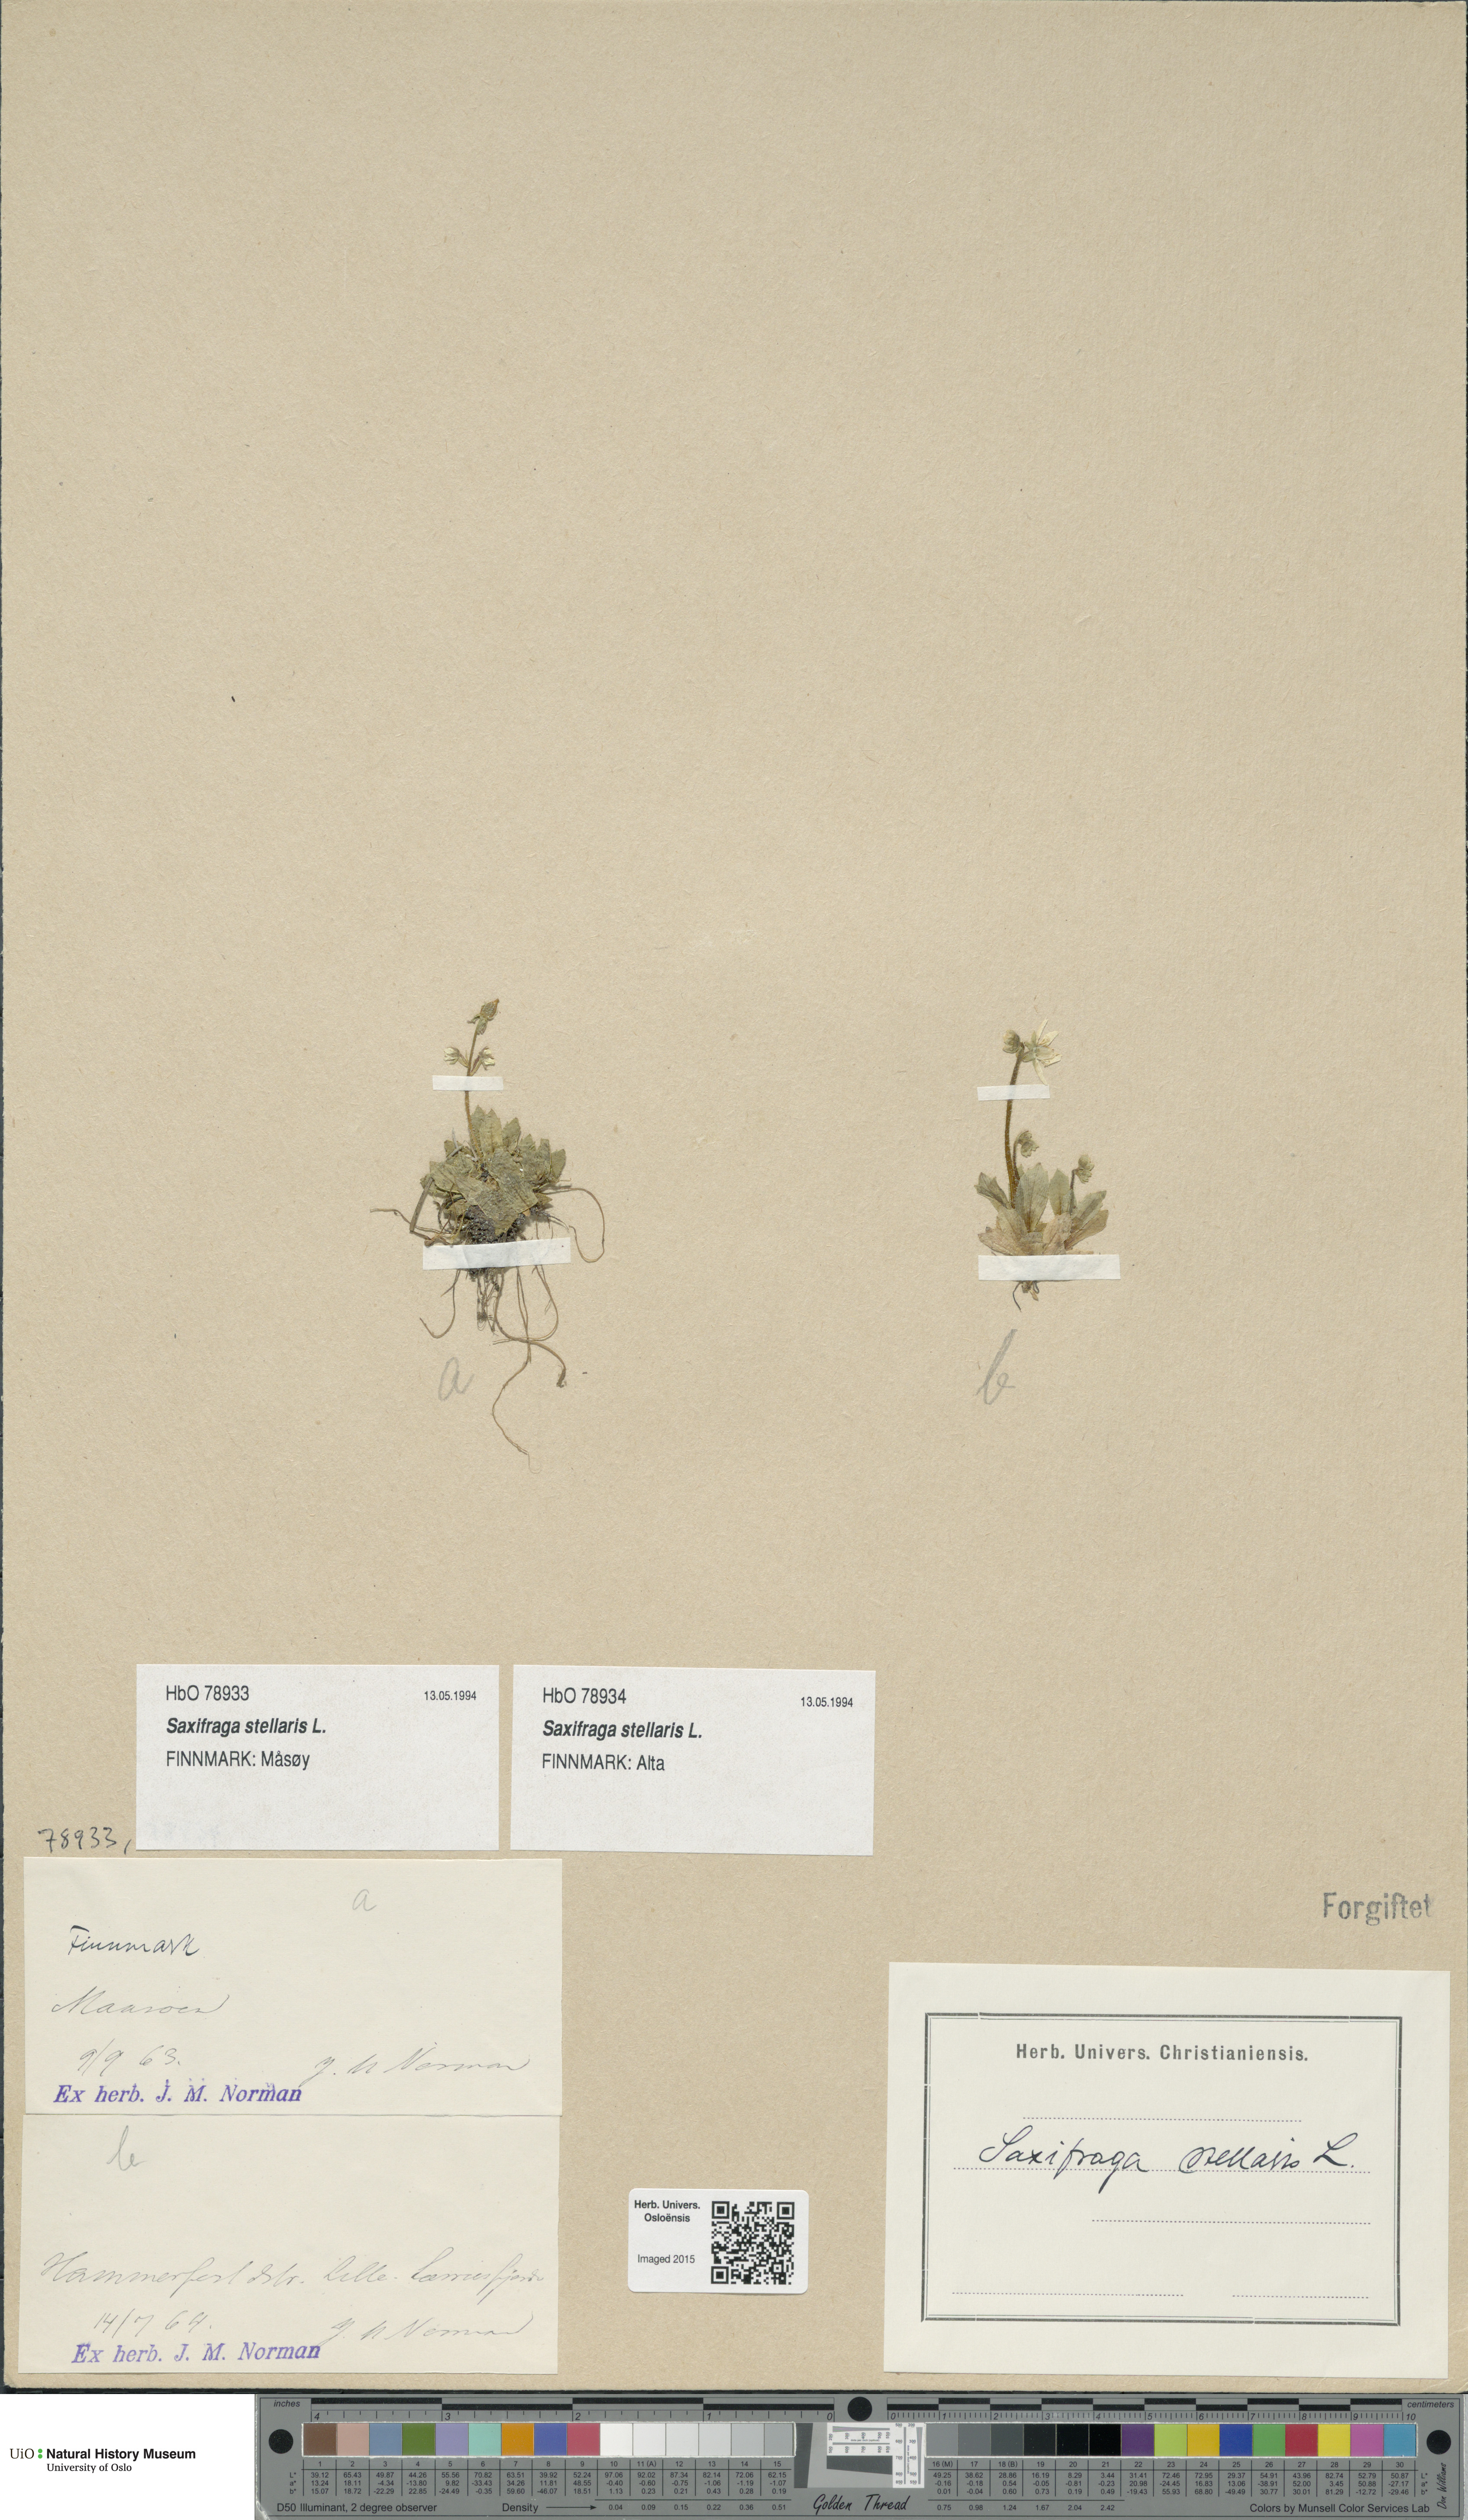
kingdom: Plantae
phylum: Tracheophyta
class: Magnoliopsida
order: Saxifragales
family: Saxifragaceae
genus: Micranthes
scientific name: Micranthes stellaris
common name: Starry saxifrage
